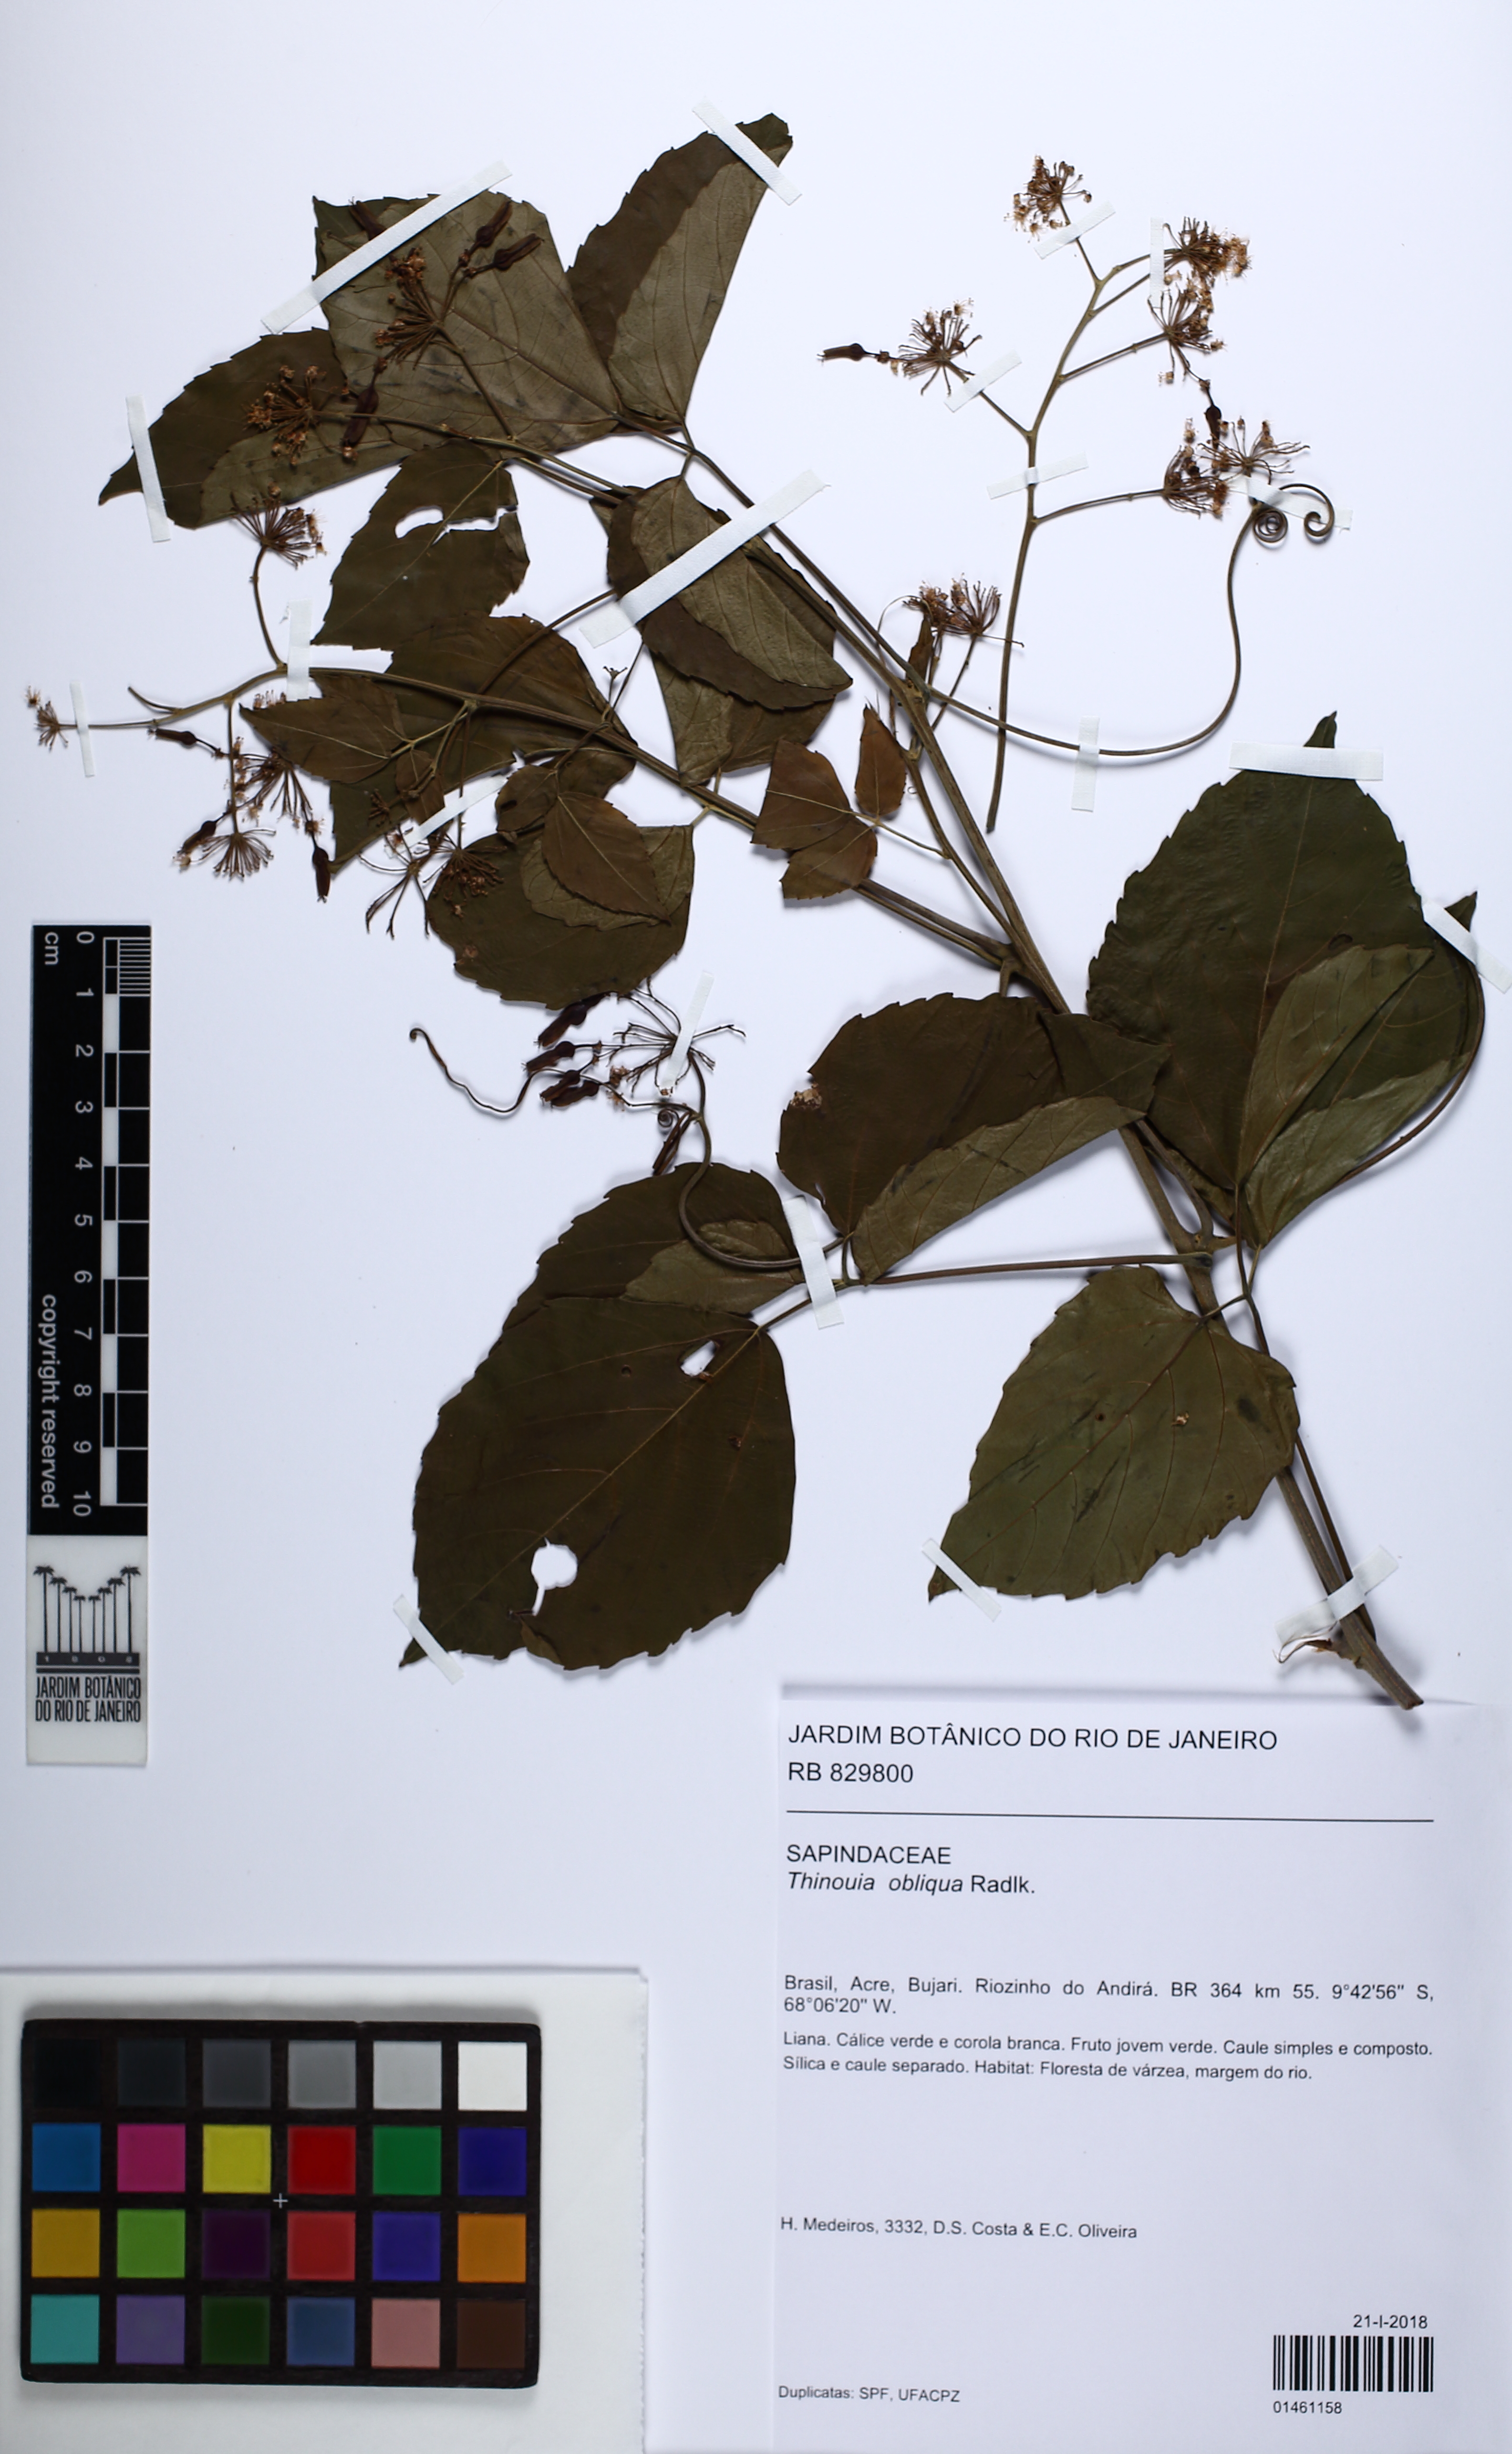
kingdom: Plantae
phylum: Tracheophyta
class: Magnoliopsida
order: Sapindales
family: Sapindaceae
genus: Thinouia
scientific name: Thinouia obliqua
